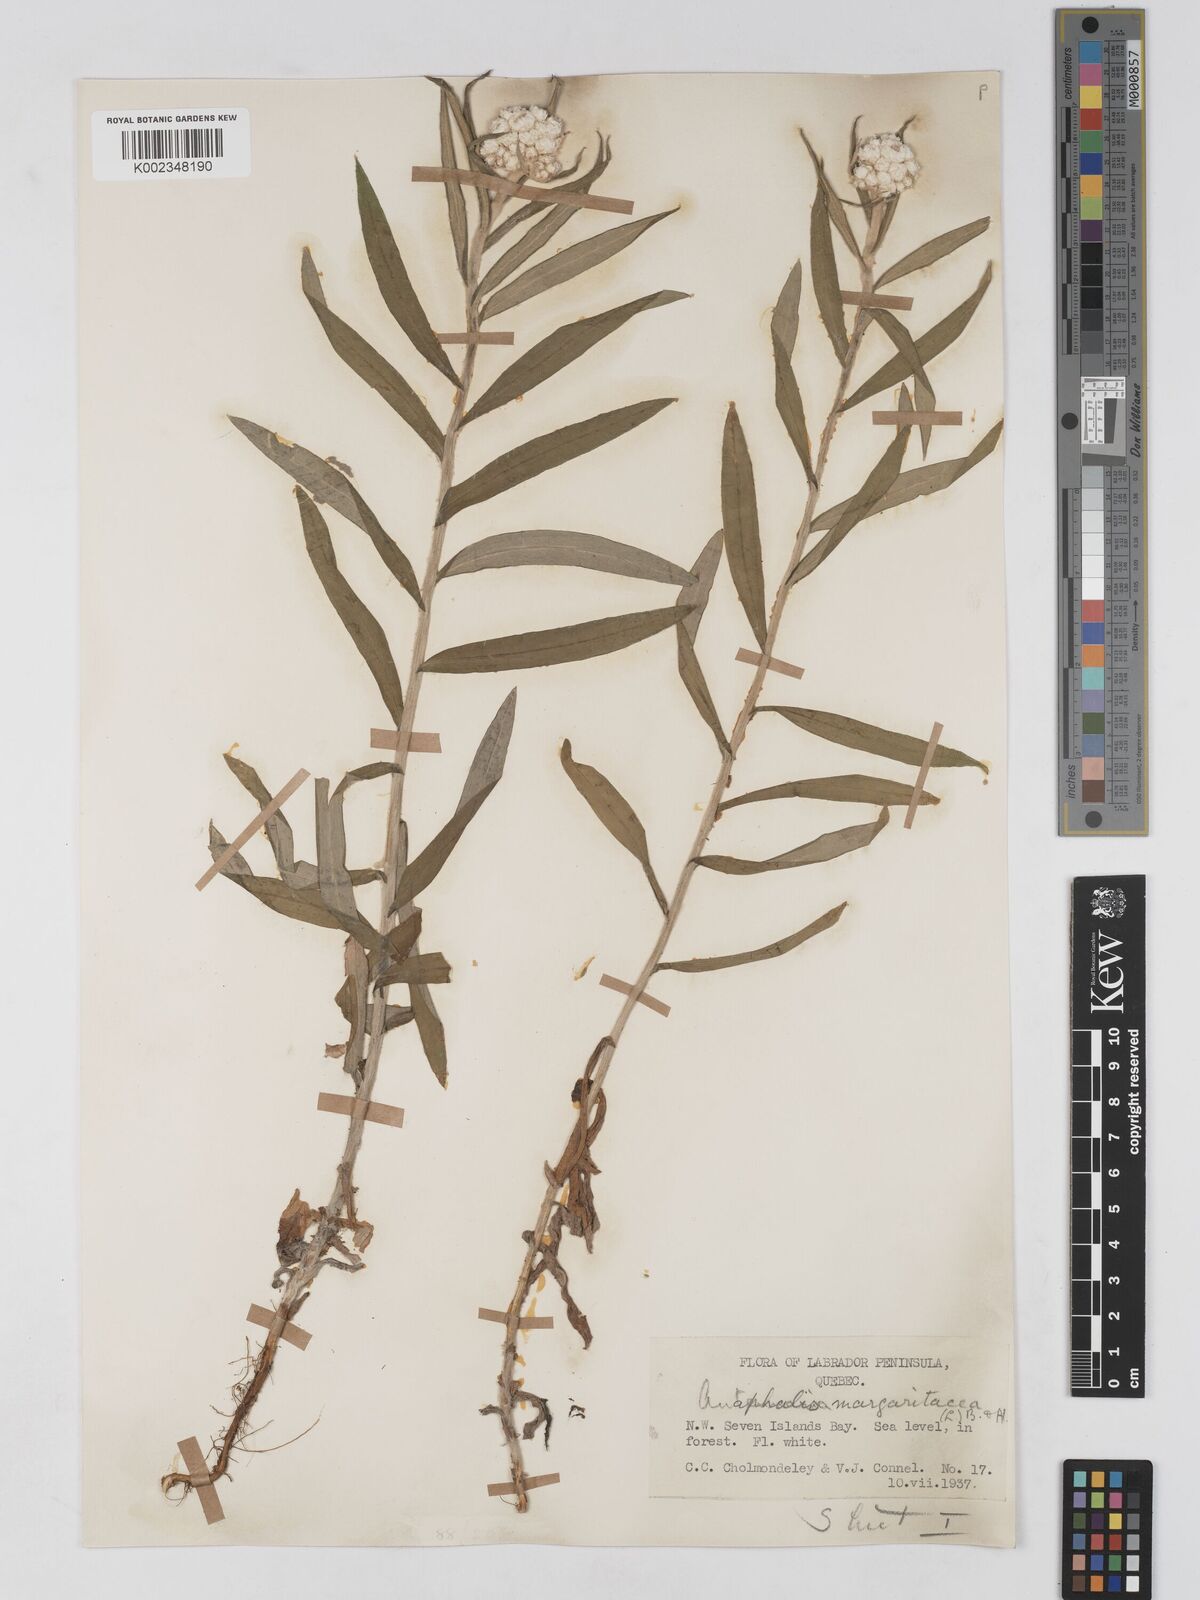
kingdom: Plantae
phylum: Tracheophyta
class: Magnoliopsida
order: Asterales
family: Asteraceae
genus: Anaphalis
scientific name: Anaphalis margaritacea
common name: Pearly everlasting
